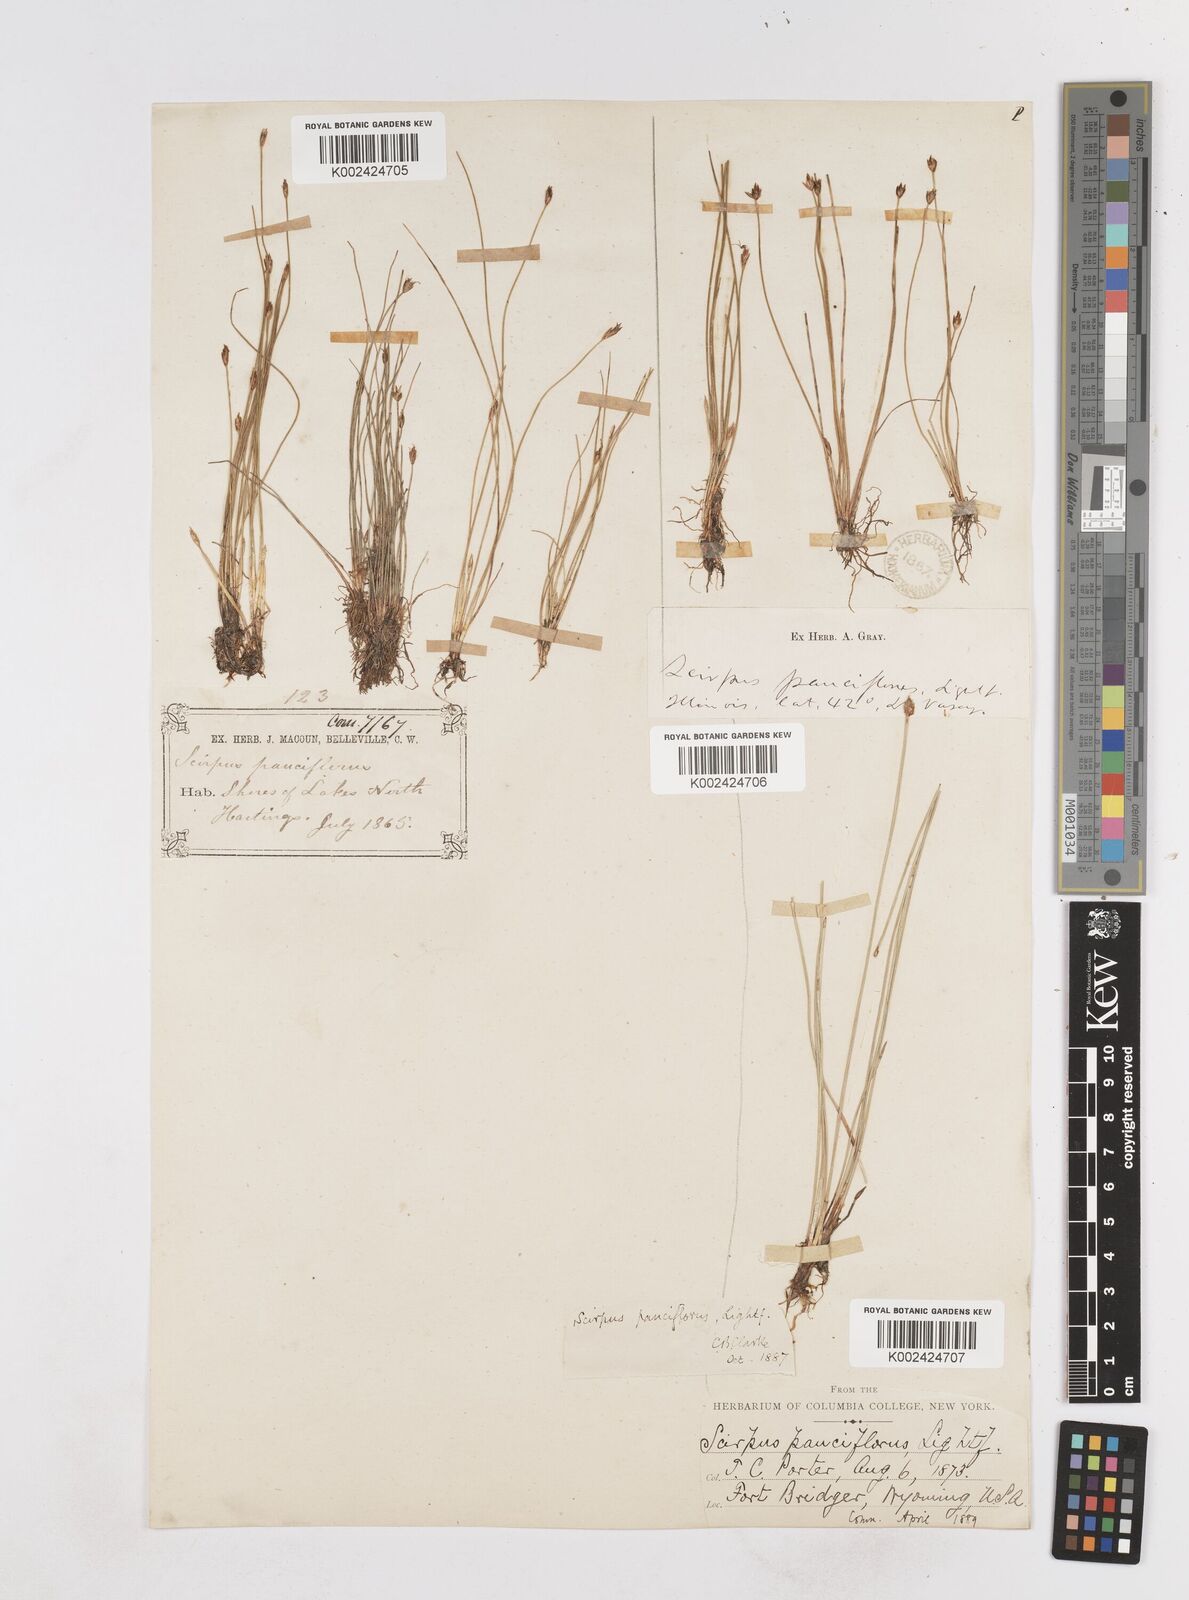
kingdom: Plantae
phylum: Tracheophyta
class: Liliopsida
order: Poales
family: Cyperaceae
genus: Eleocharis
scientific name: Eleocharis quinqueflora
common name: Few-flowered spike-rush
